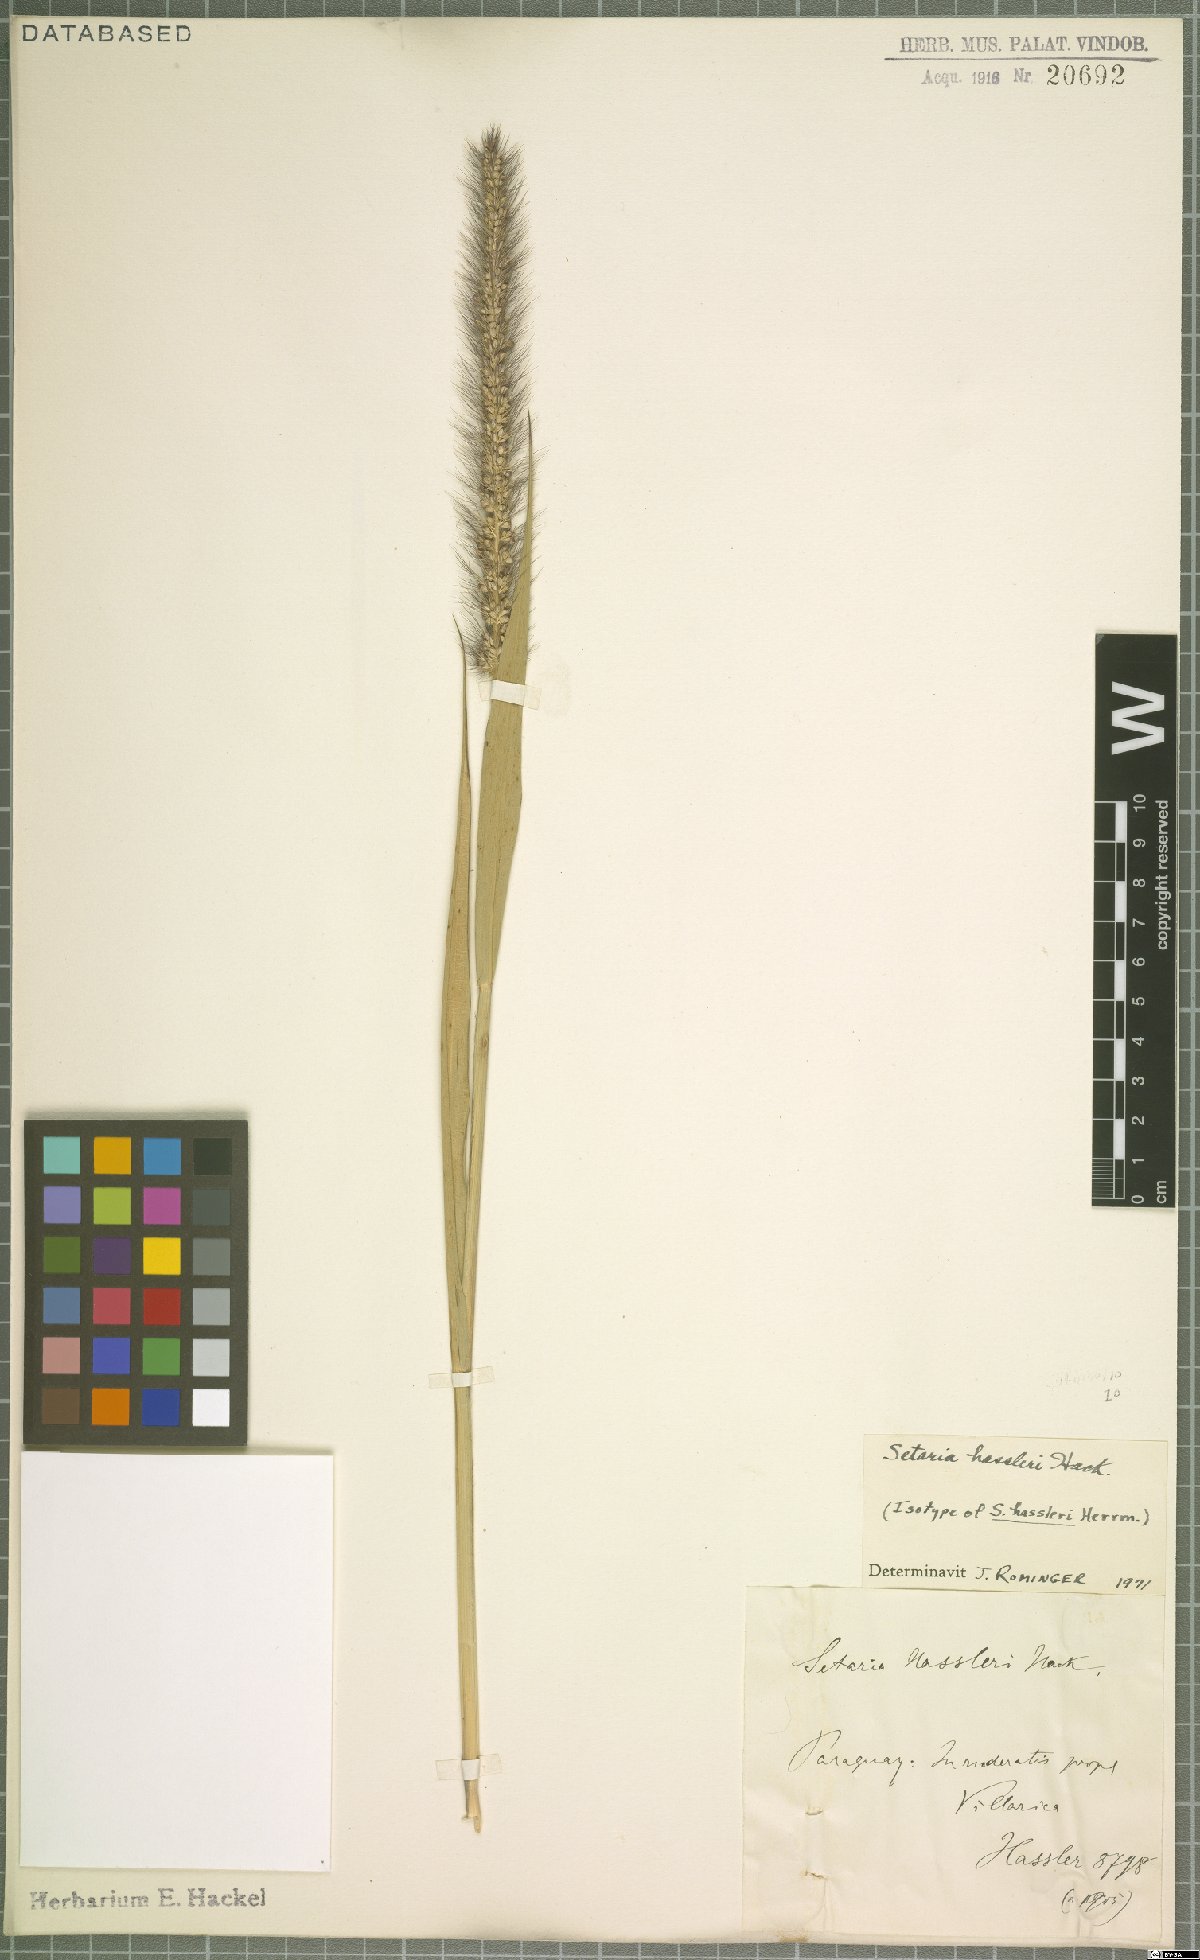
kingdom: Plantae
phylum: Tracheophyta
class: Liliopsida
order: Poales
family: Poaceae
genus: Setaria
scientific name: Setaria hassleri
